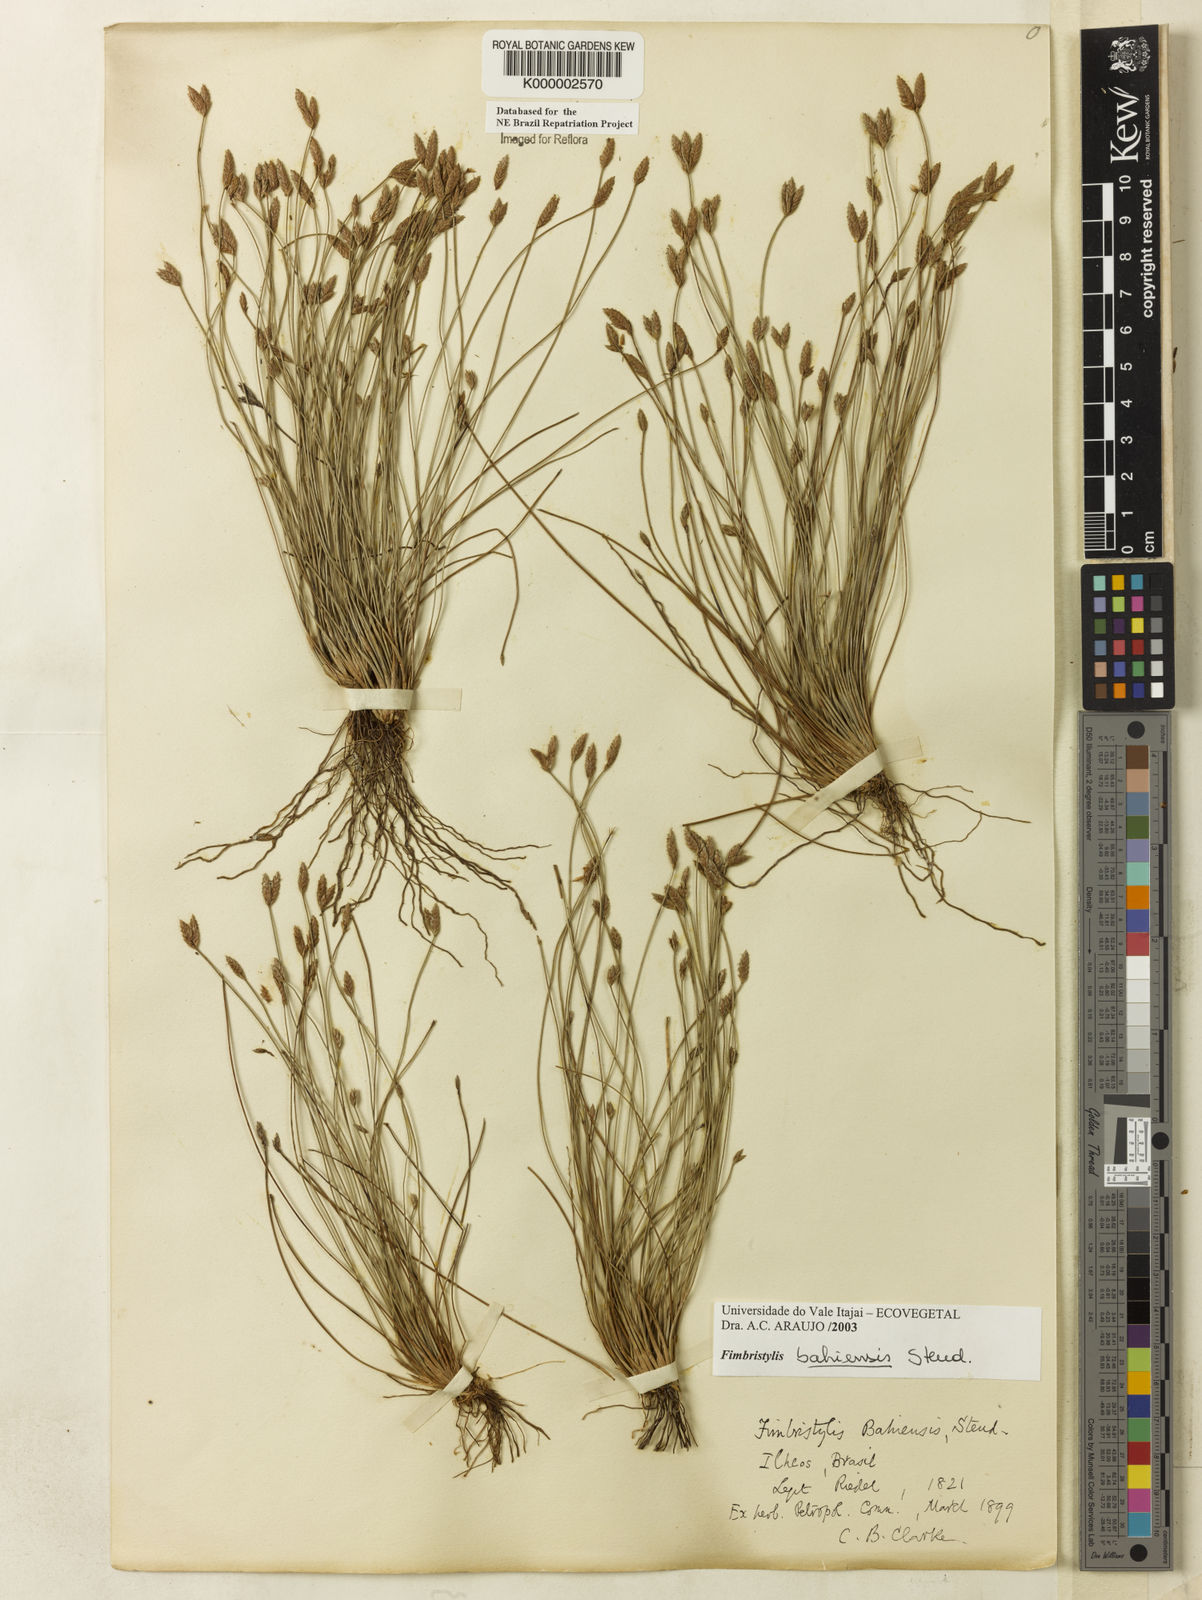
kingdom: Plantae
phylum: Tracheophyta
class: Liliopsida
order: Poales
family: Cyperaceae
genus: Fimbristylis
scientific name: Fimbristylis bahiensis
